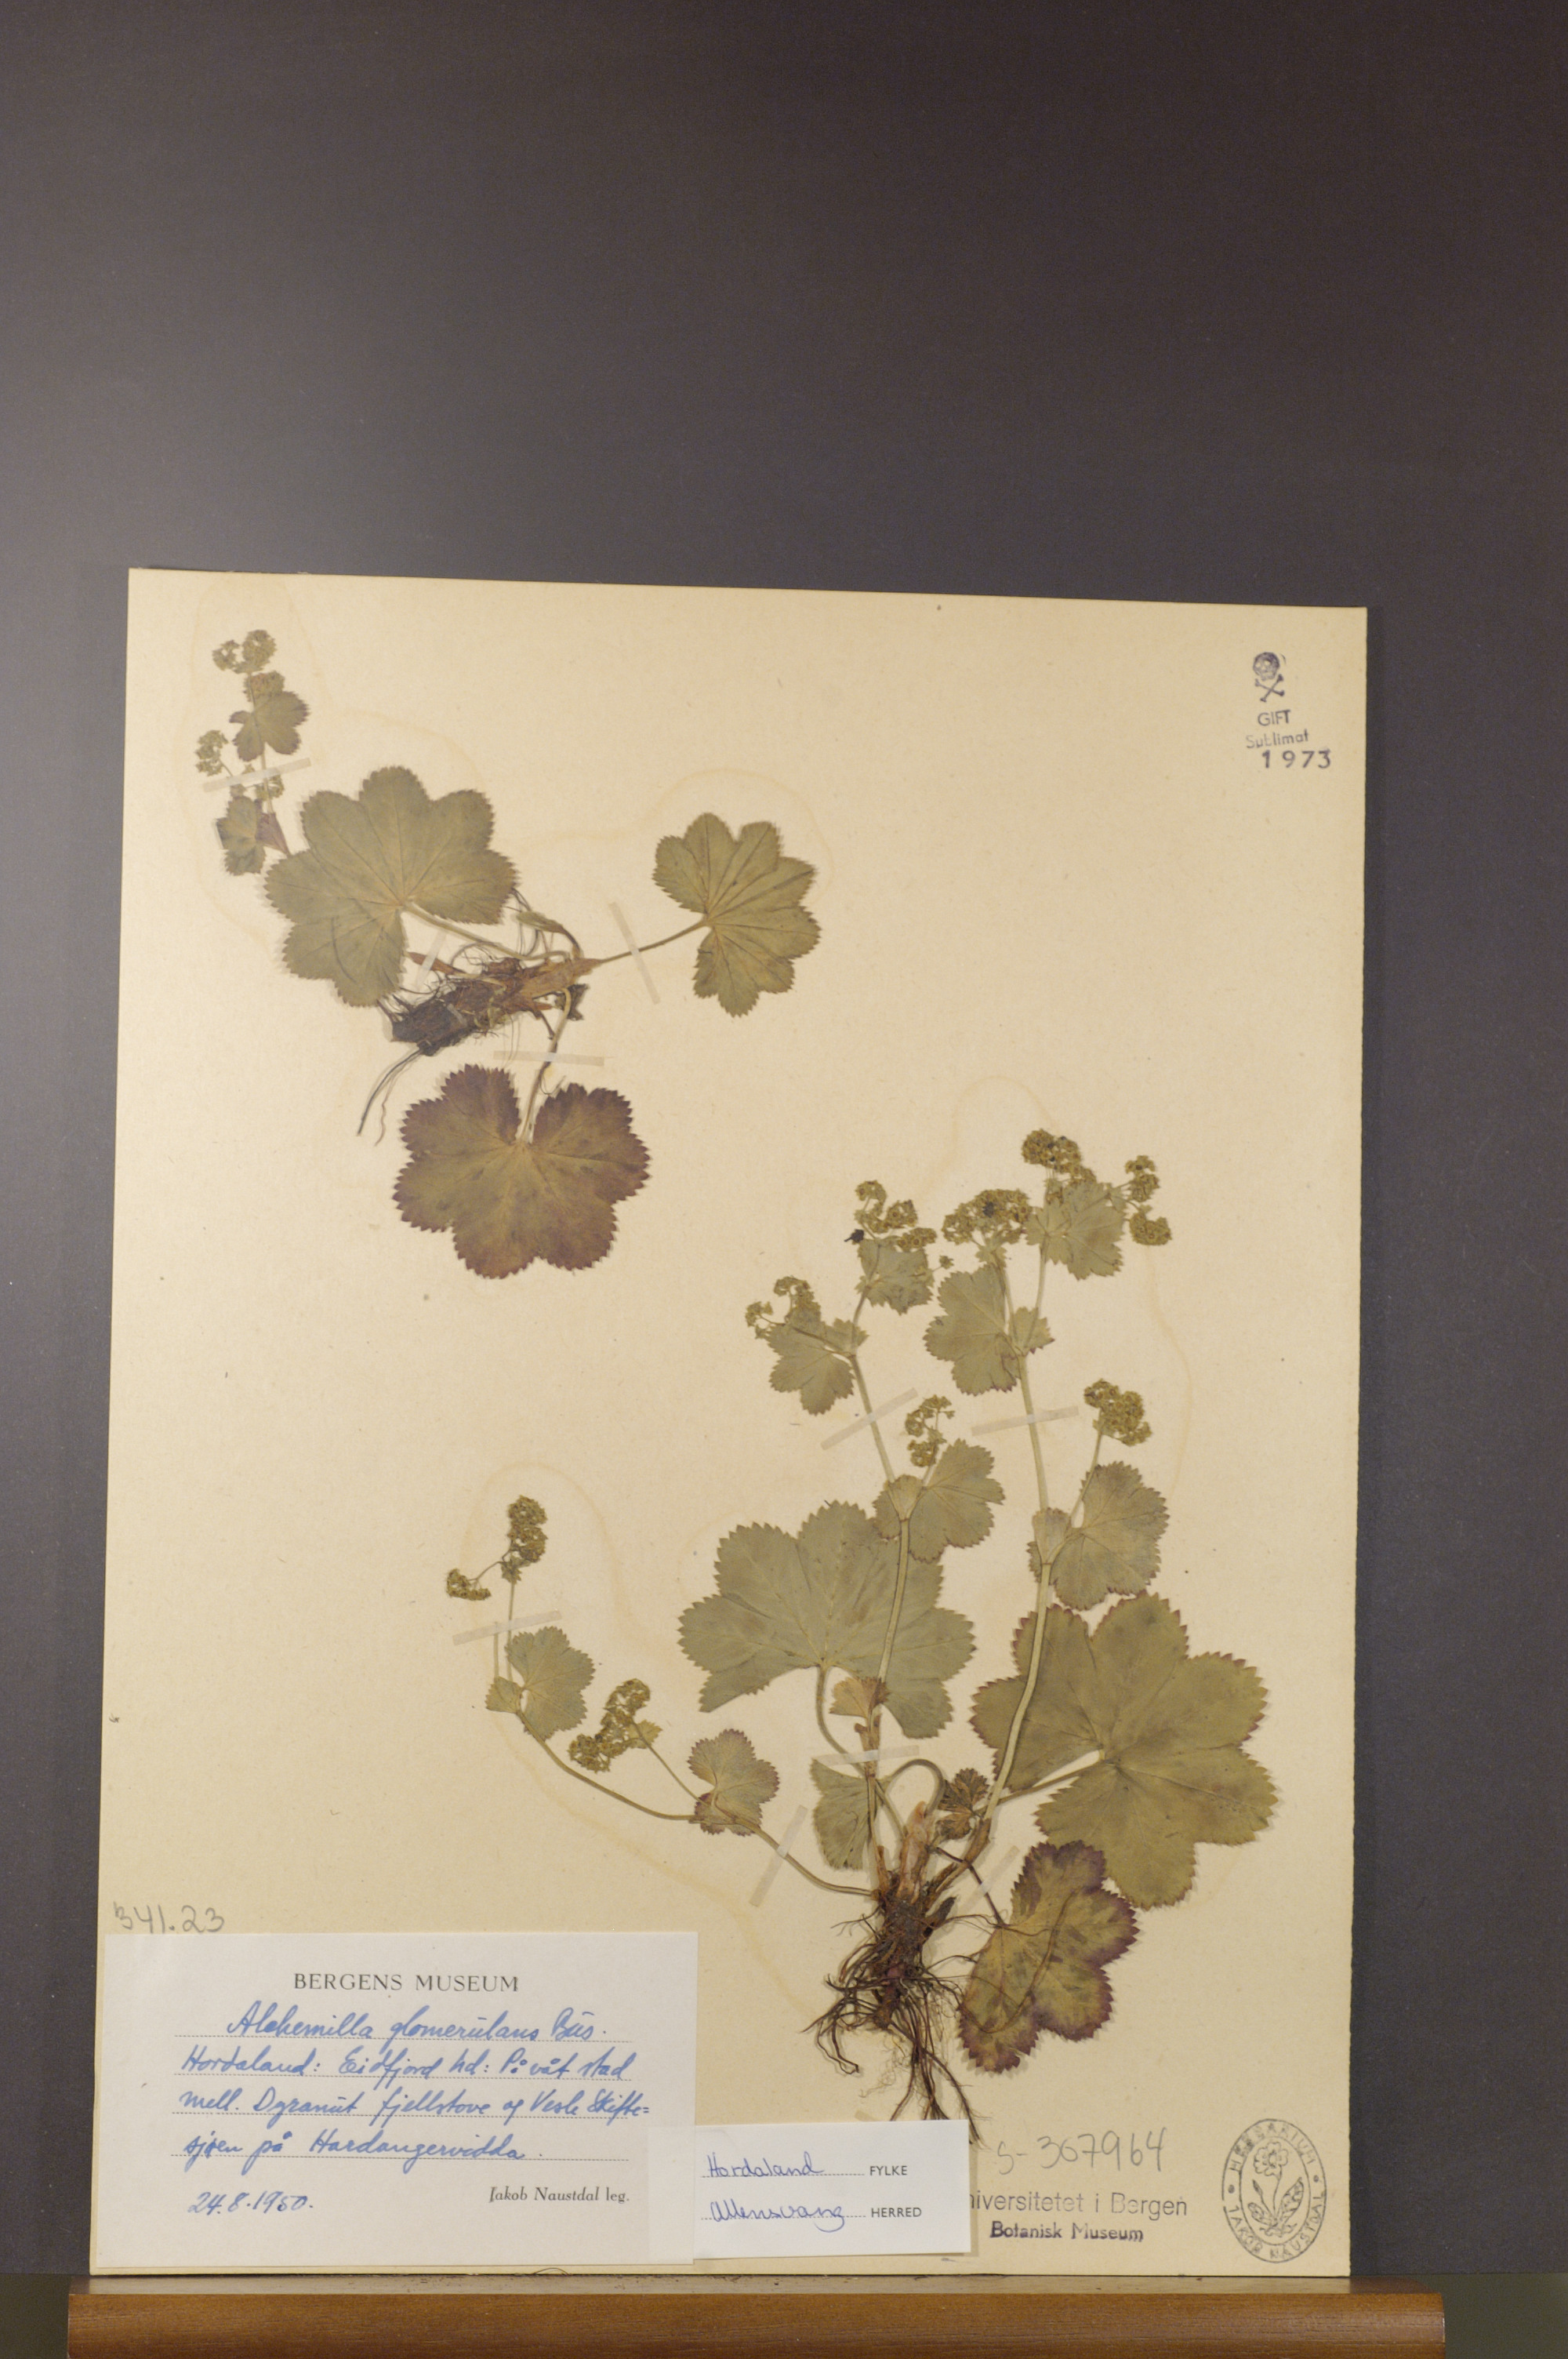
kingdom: Plantae
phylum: Tracheophyta
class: Magnoliopsida
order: Rosales
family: Rosaceae
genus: Alchemilla
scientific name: Alchemilla glomerulans
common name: Clustered lady's mantle
